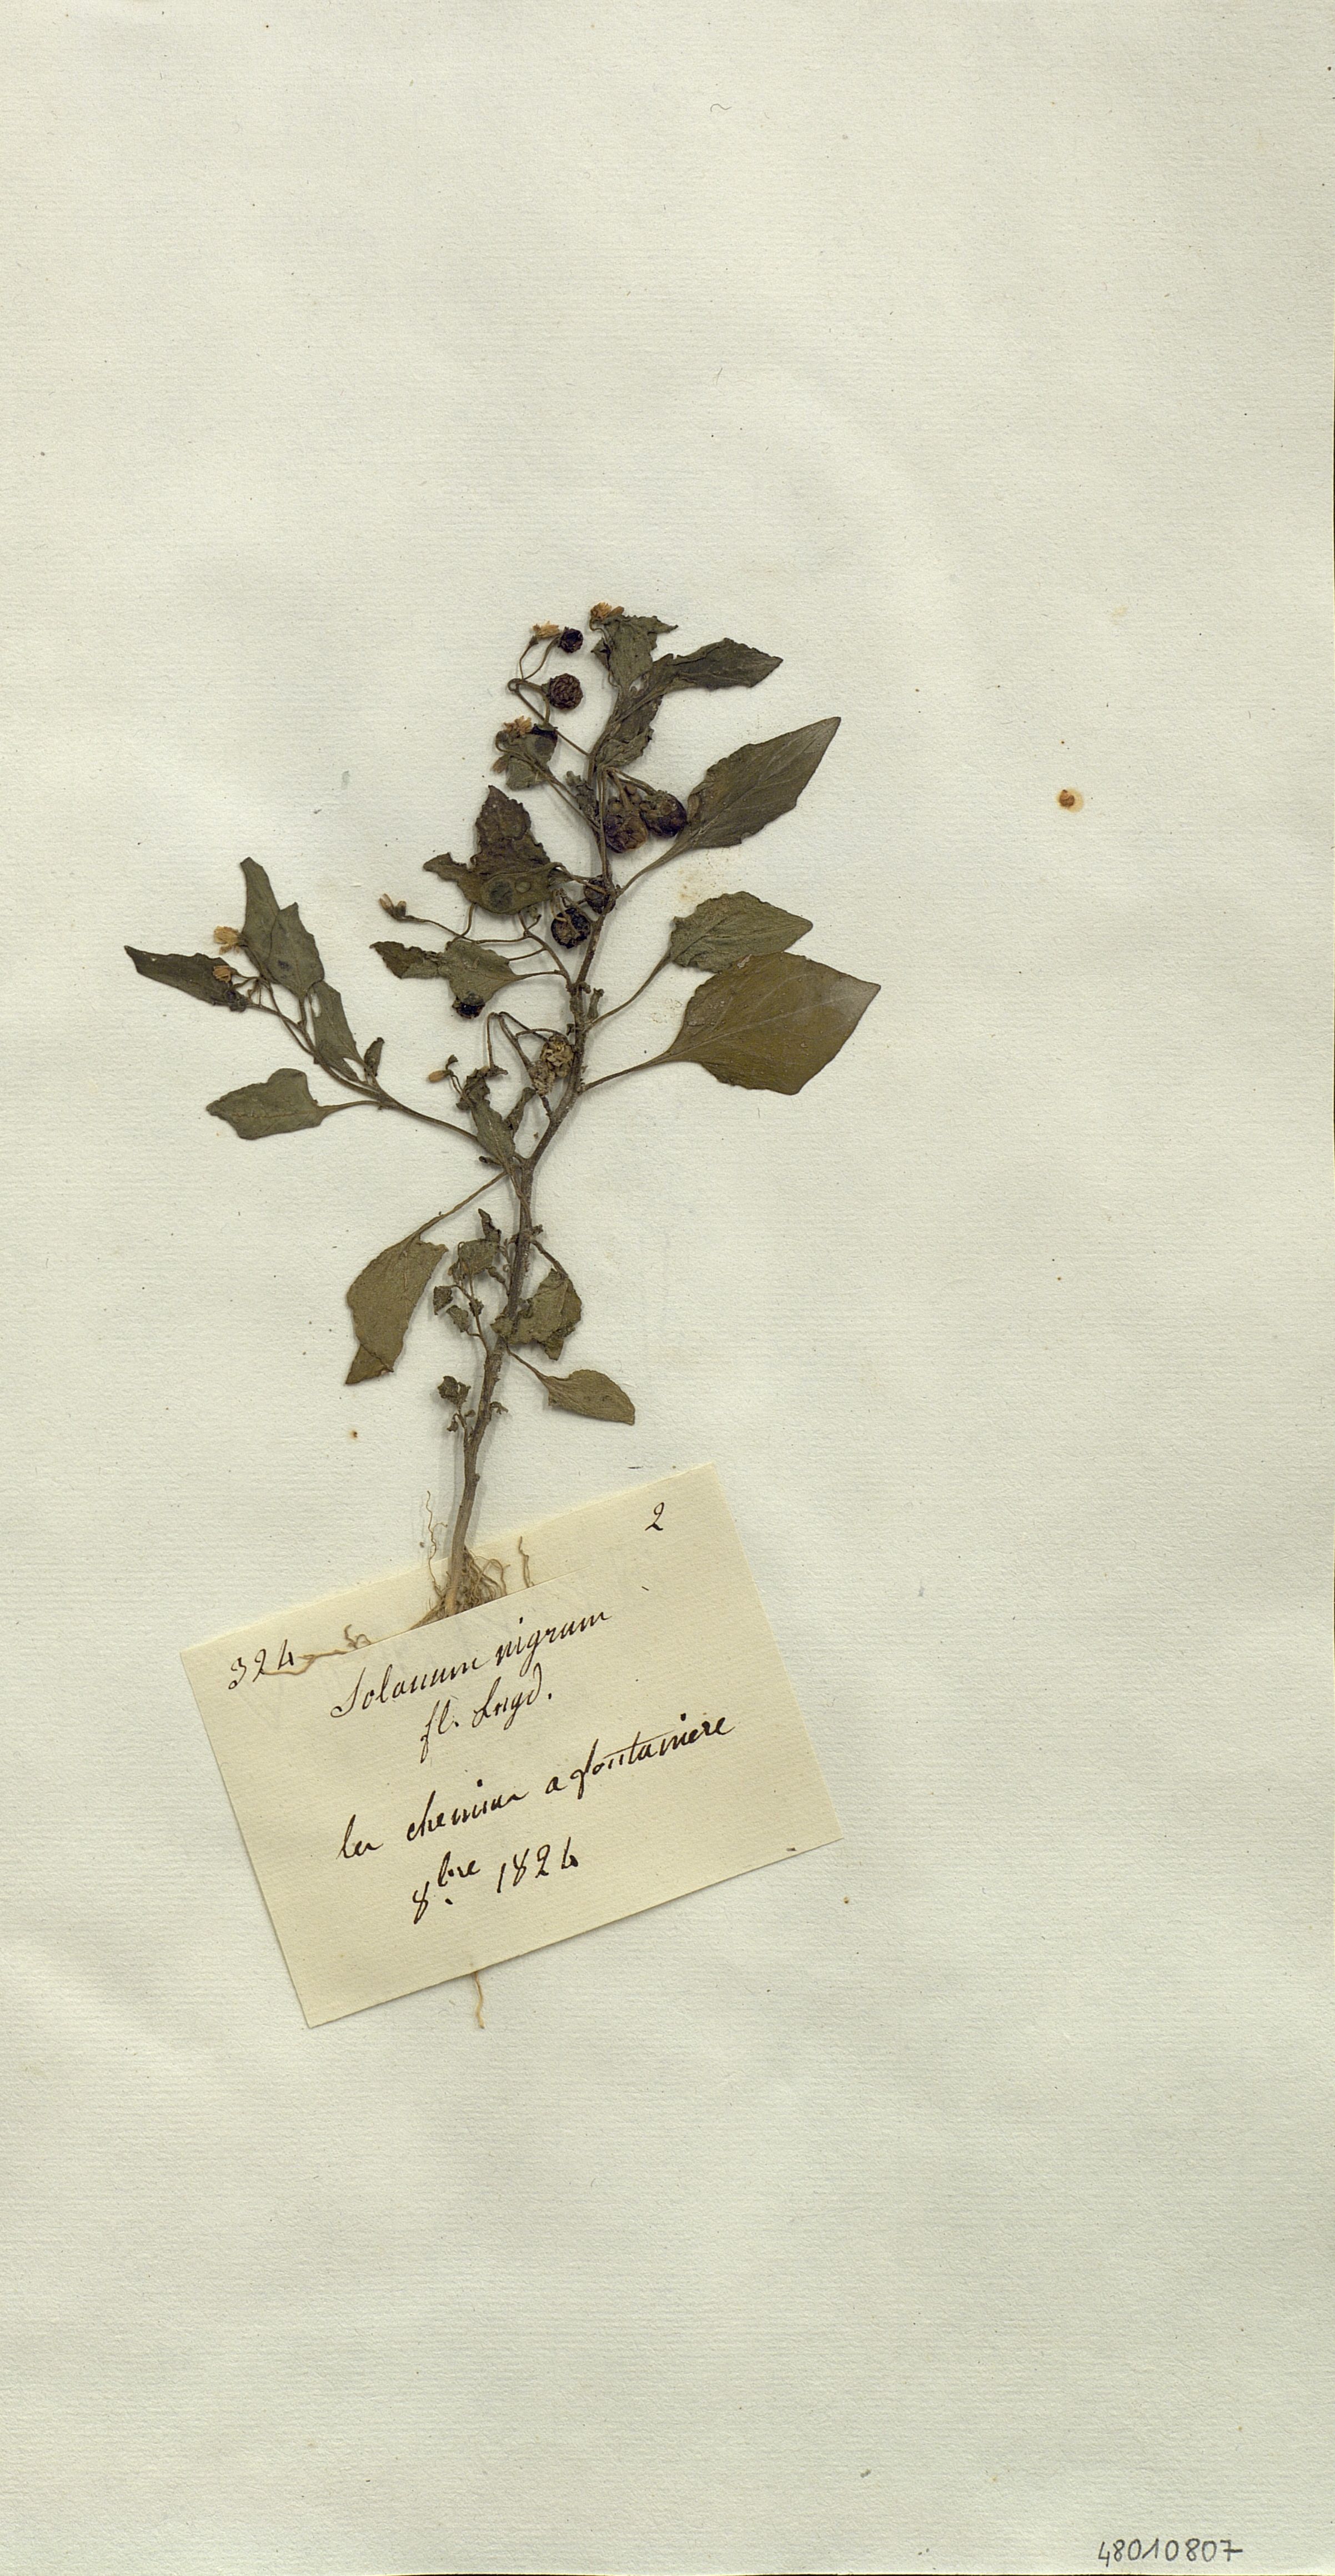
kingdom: Plantae
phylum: Tracheophyta
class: Magnoliopsida
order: Solanales
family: Solanaceae
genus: Solanum
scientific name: Solanum nigrum
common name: Black nightshade
